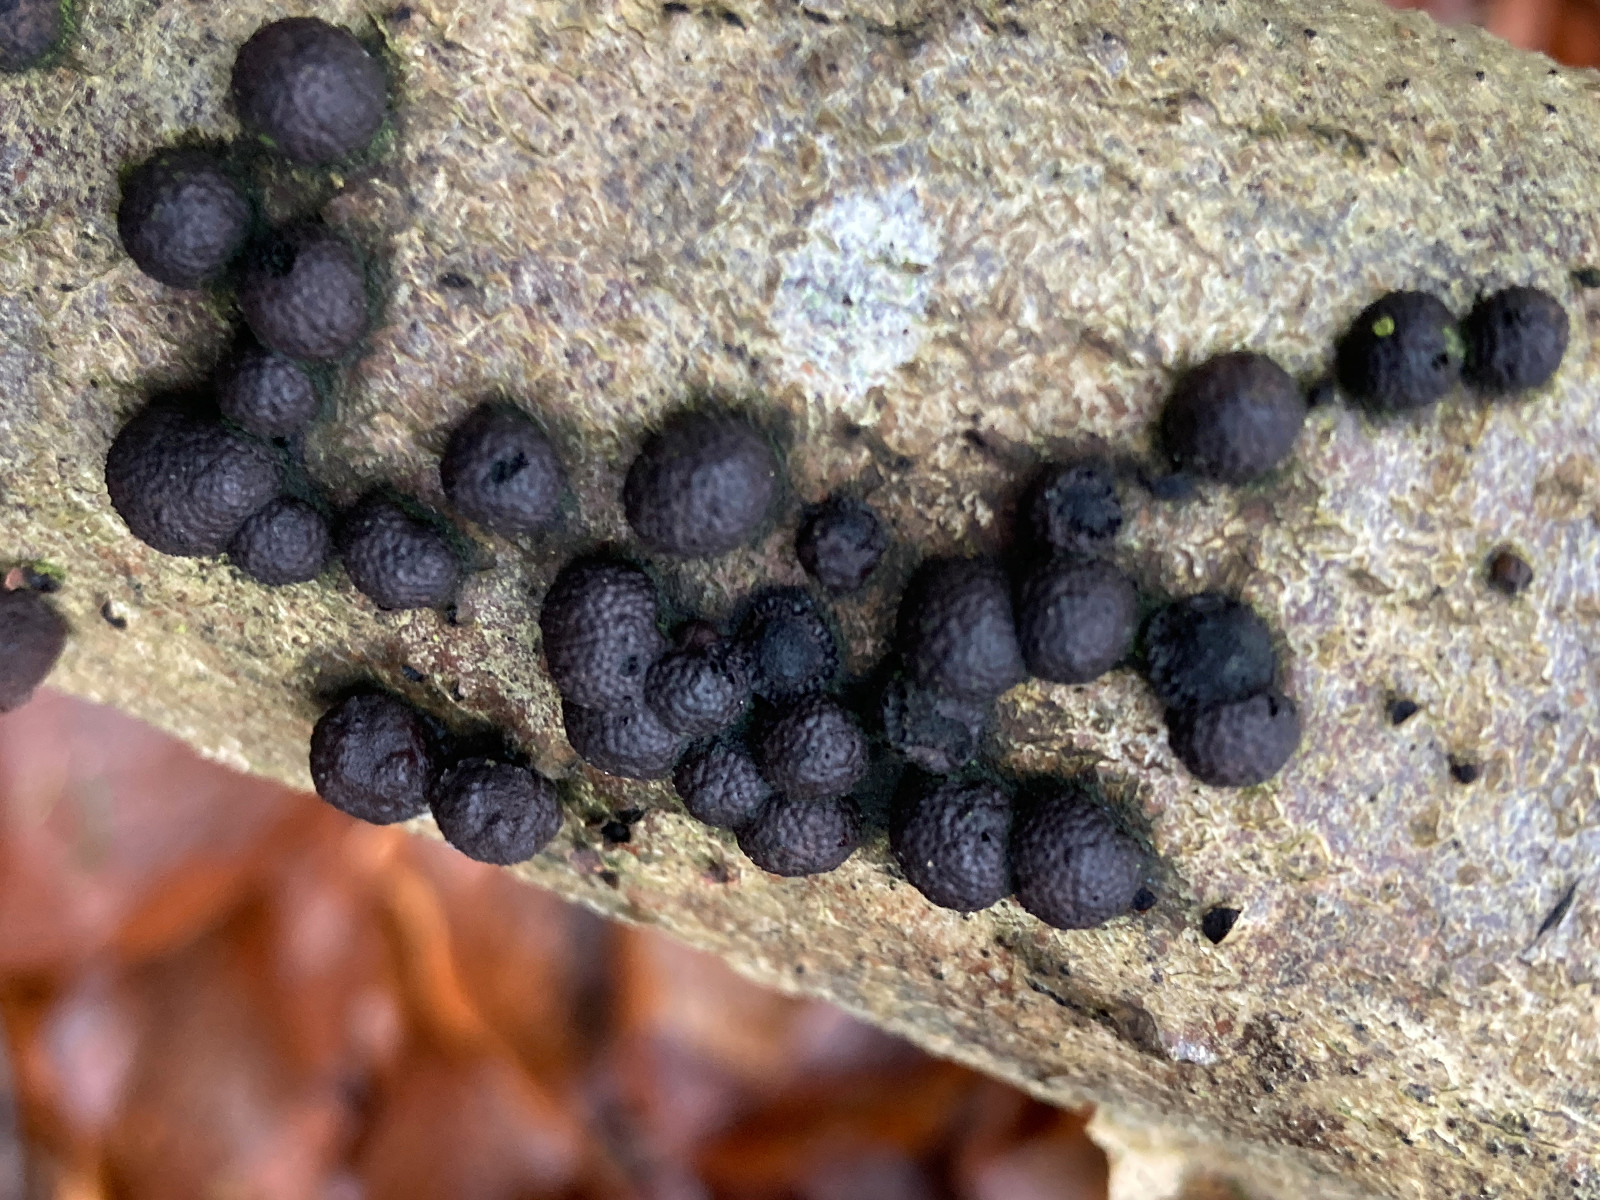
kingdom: Fungi
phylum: Ascomycota
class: Sordariomycetes
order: Xylariales
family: Hypoxylaceae
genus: Hypoxylon
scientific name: Hypoxylon fragiforme
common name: kuljordbær
